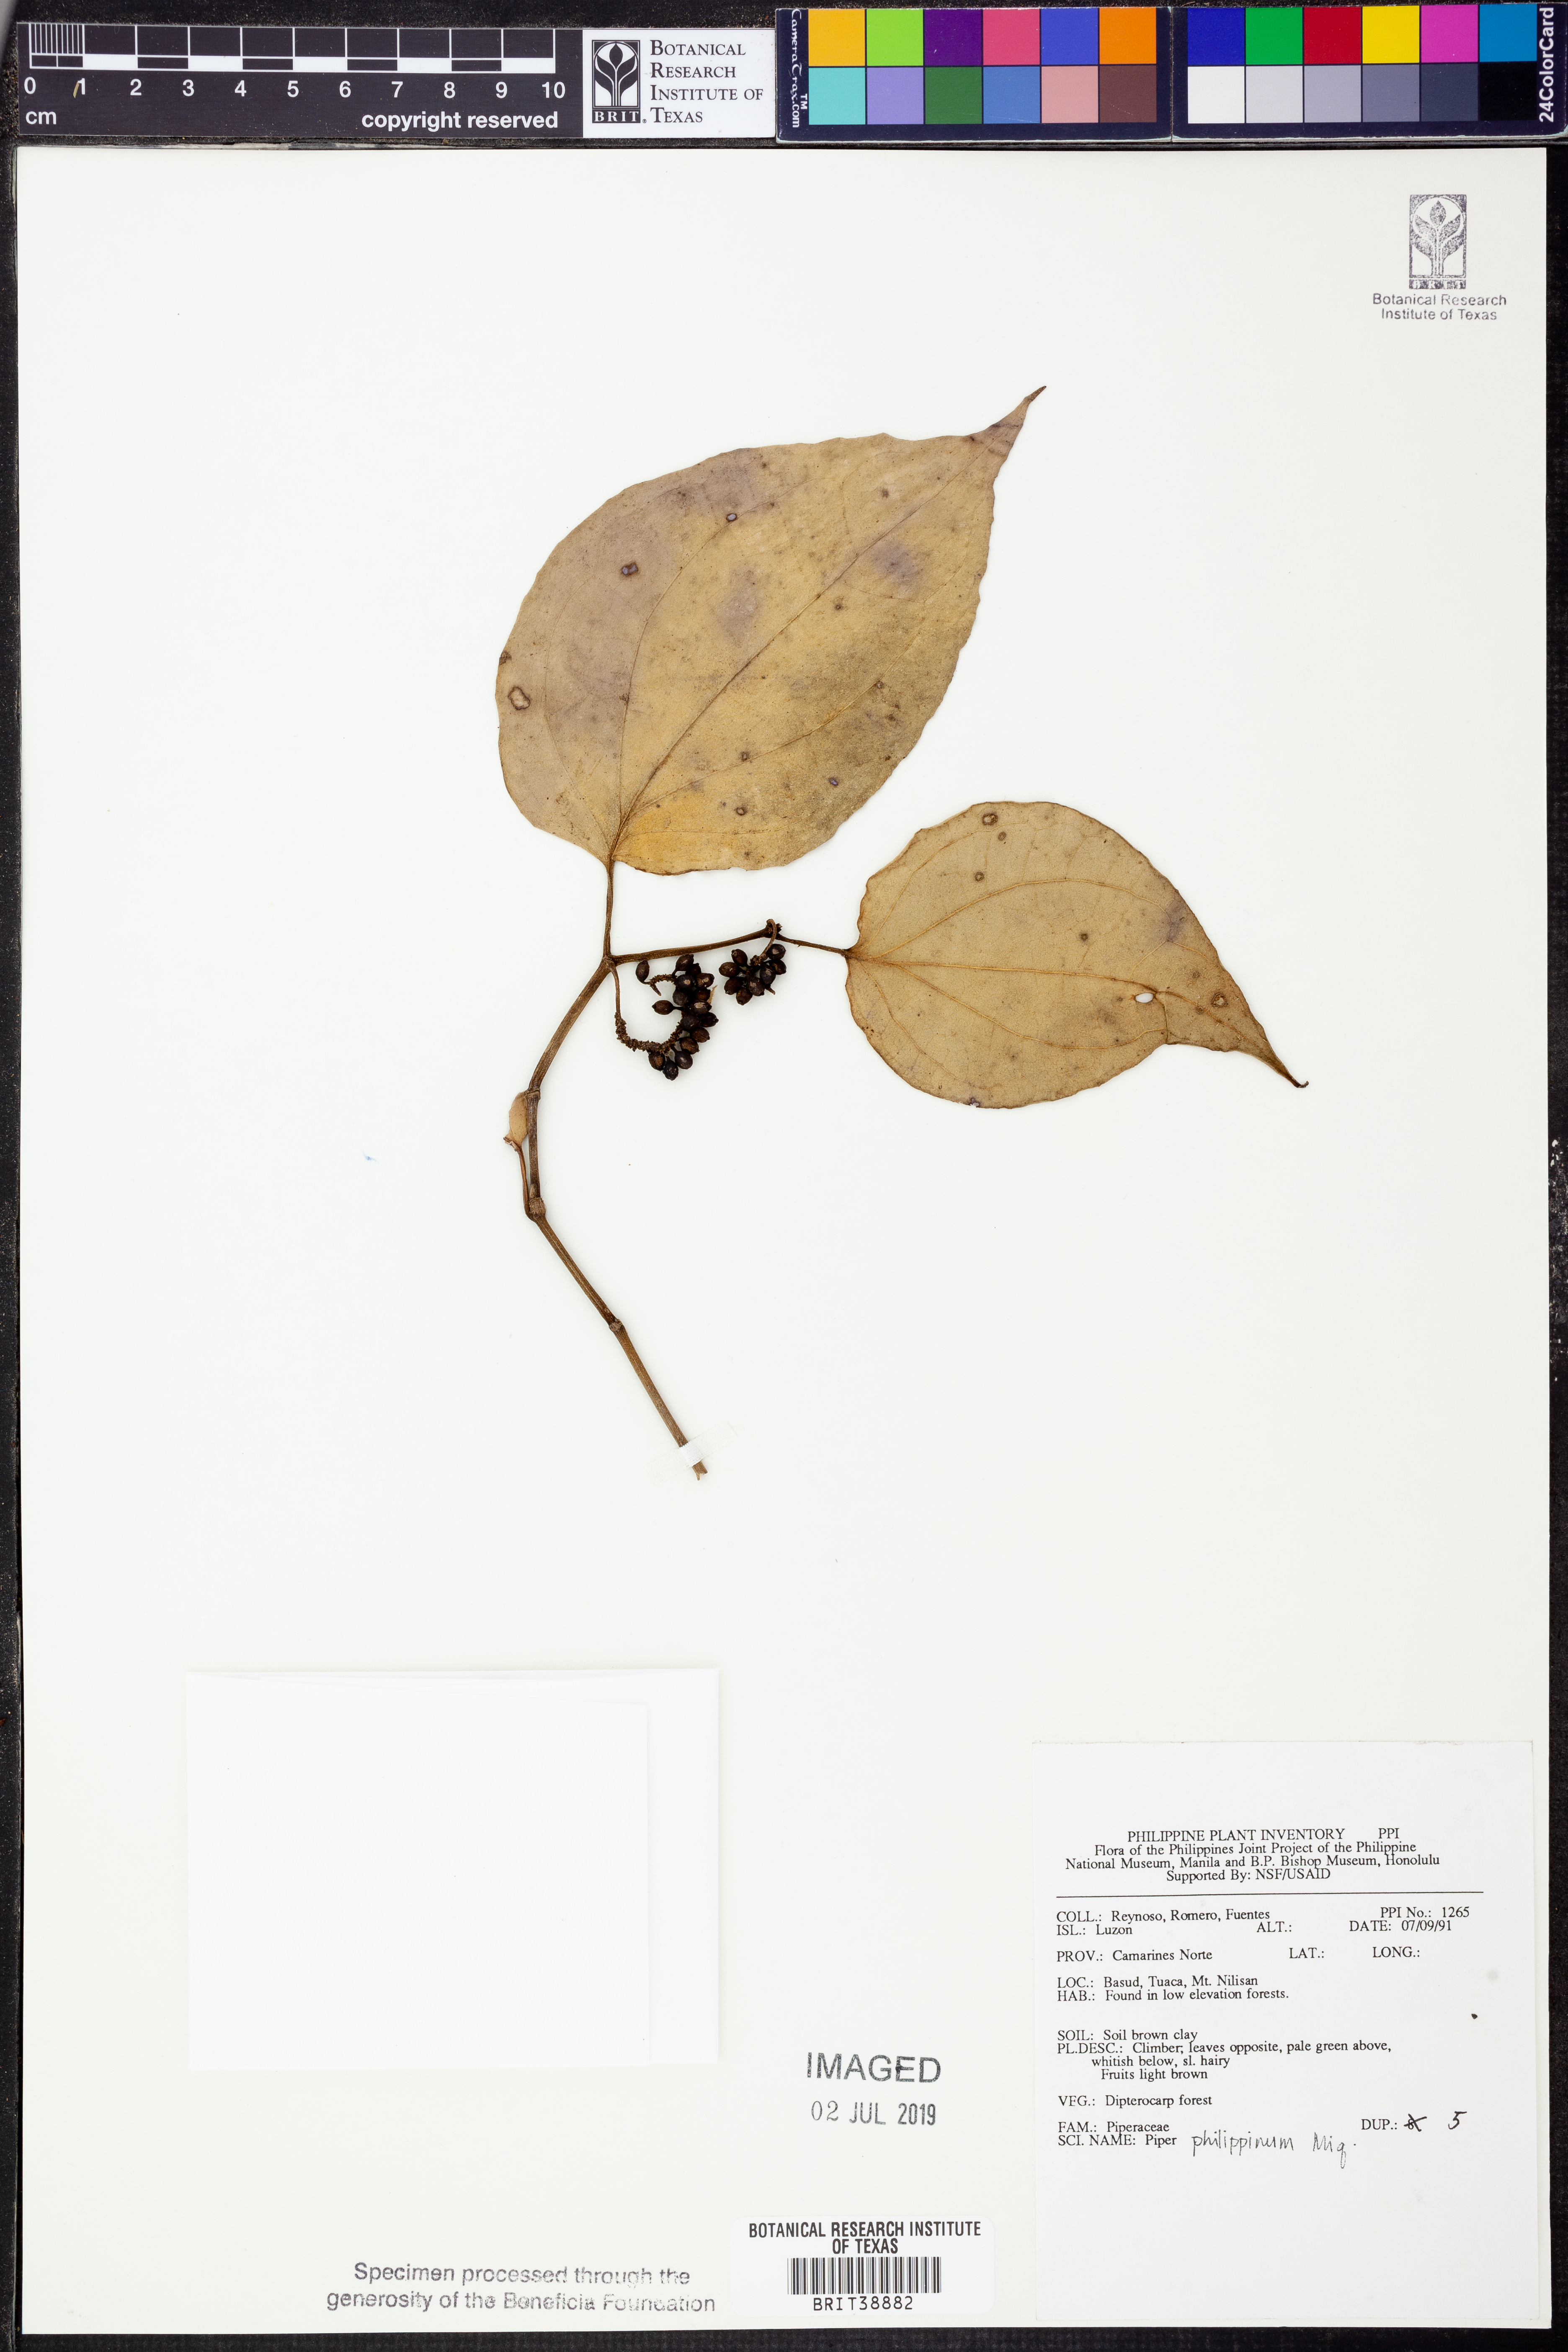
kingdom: Plantae
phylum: Tracheophyta
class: Magnoliopsida
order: Piperales
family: Piperaceae
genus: Piper
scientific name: Piper philippinum
